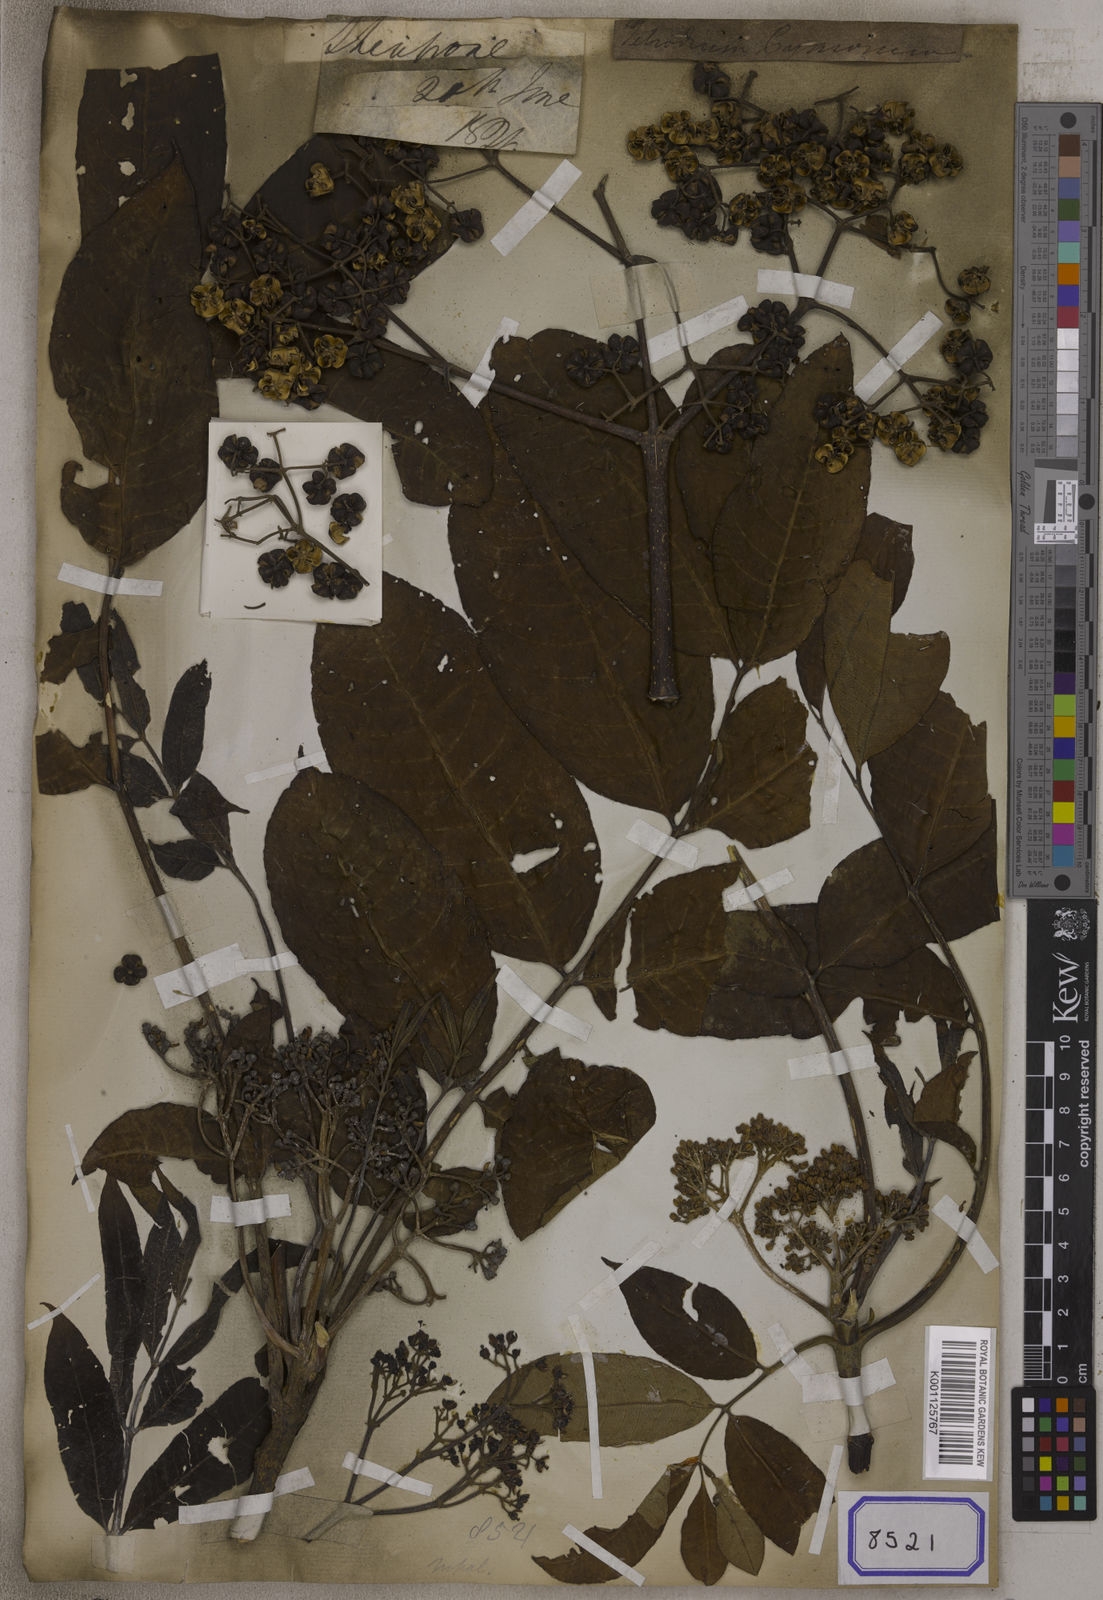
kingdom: Plantae
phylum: Tracheophyta
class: Magnoliopsida
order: Sapindales
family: Rutaceae
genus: Tetradium
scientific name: Tetradium fraxinifolium
